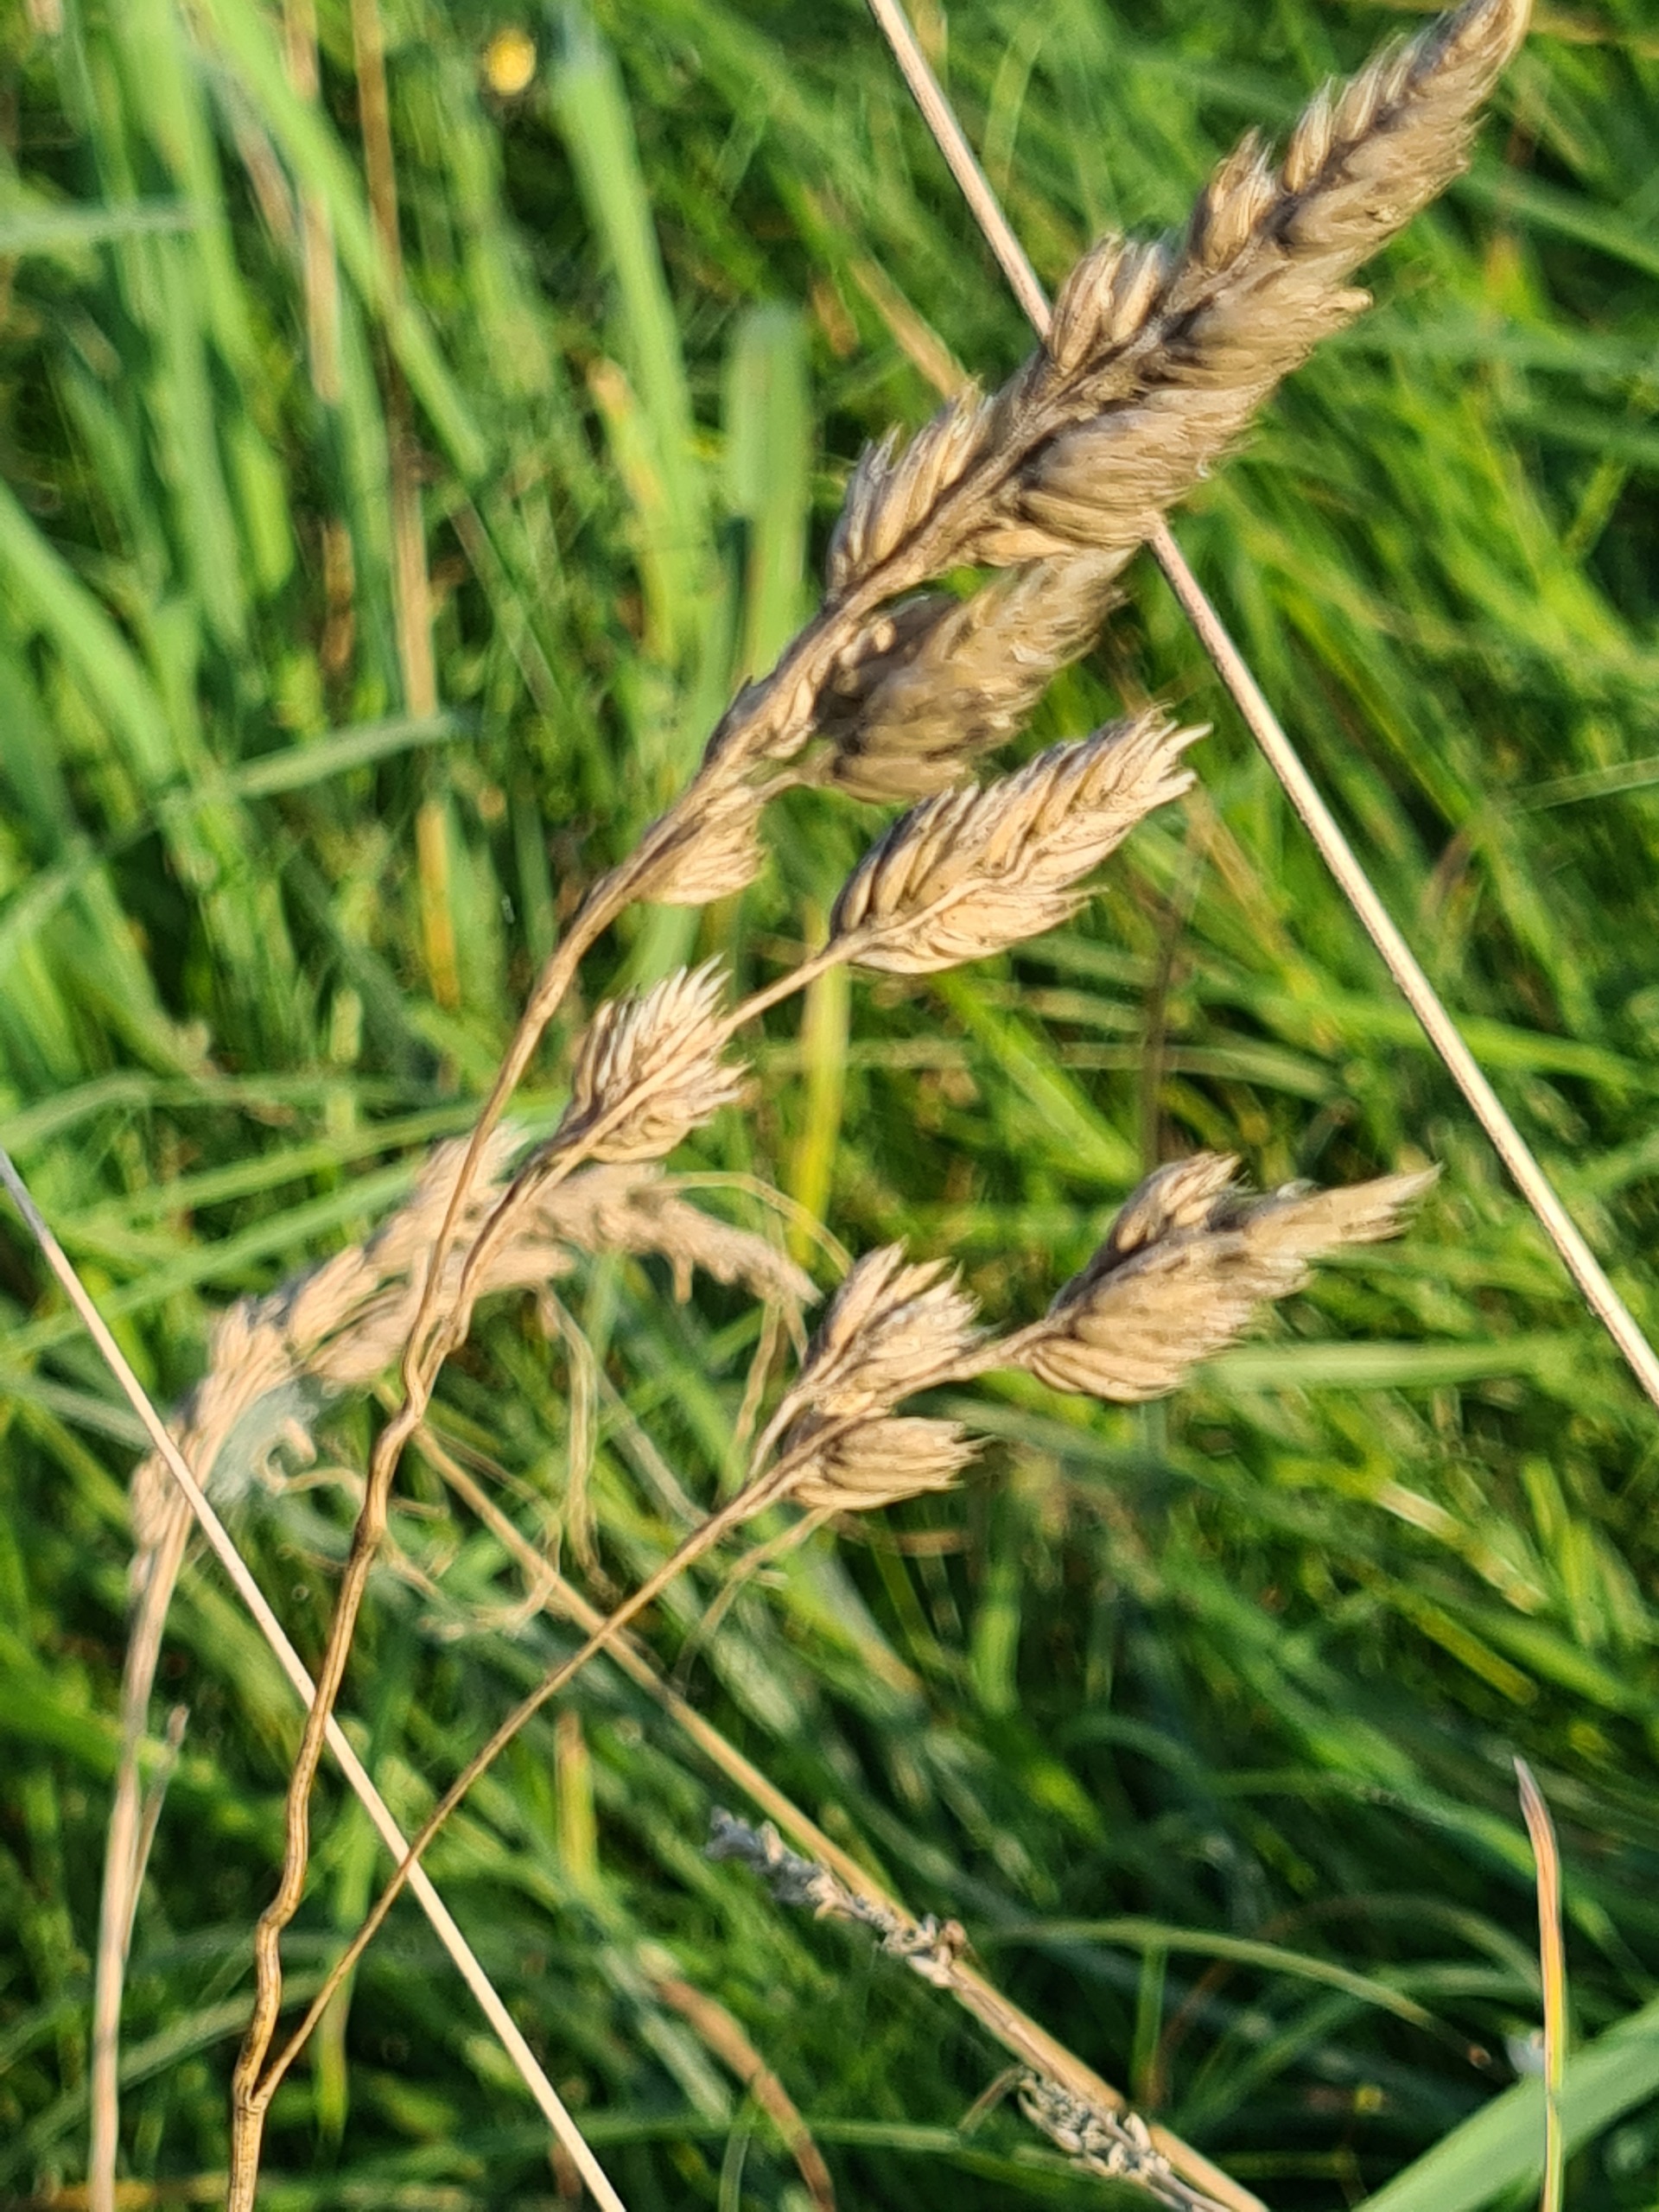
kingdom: Plantae
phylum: Tracheophyta
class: Liliopsida
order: Poales
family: Poaceae
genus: Dactylis
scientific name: Dactylis glomerata
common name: Almindelig hundegræs
